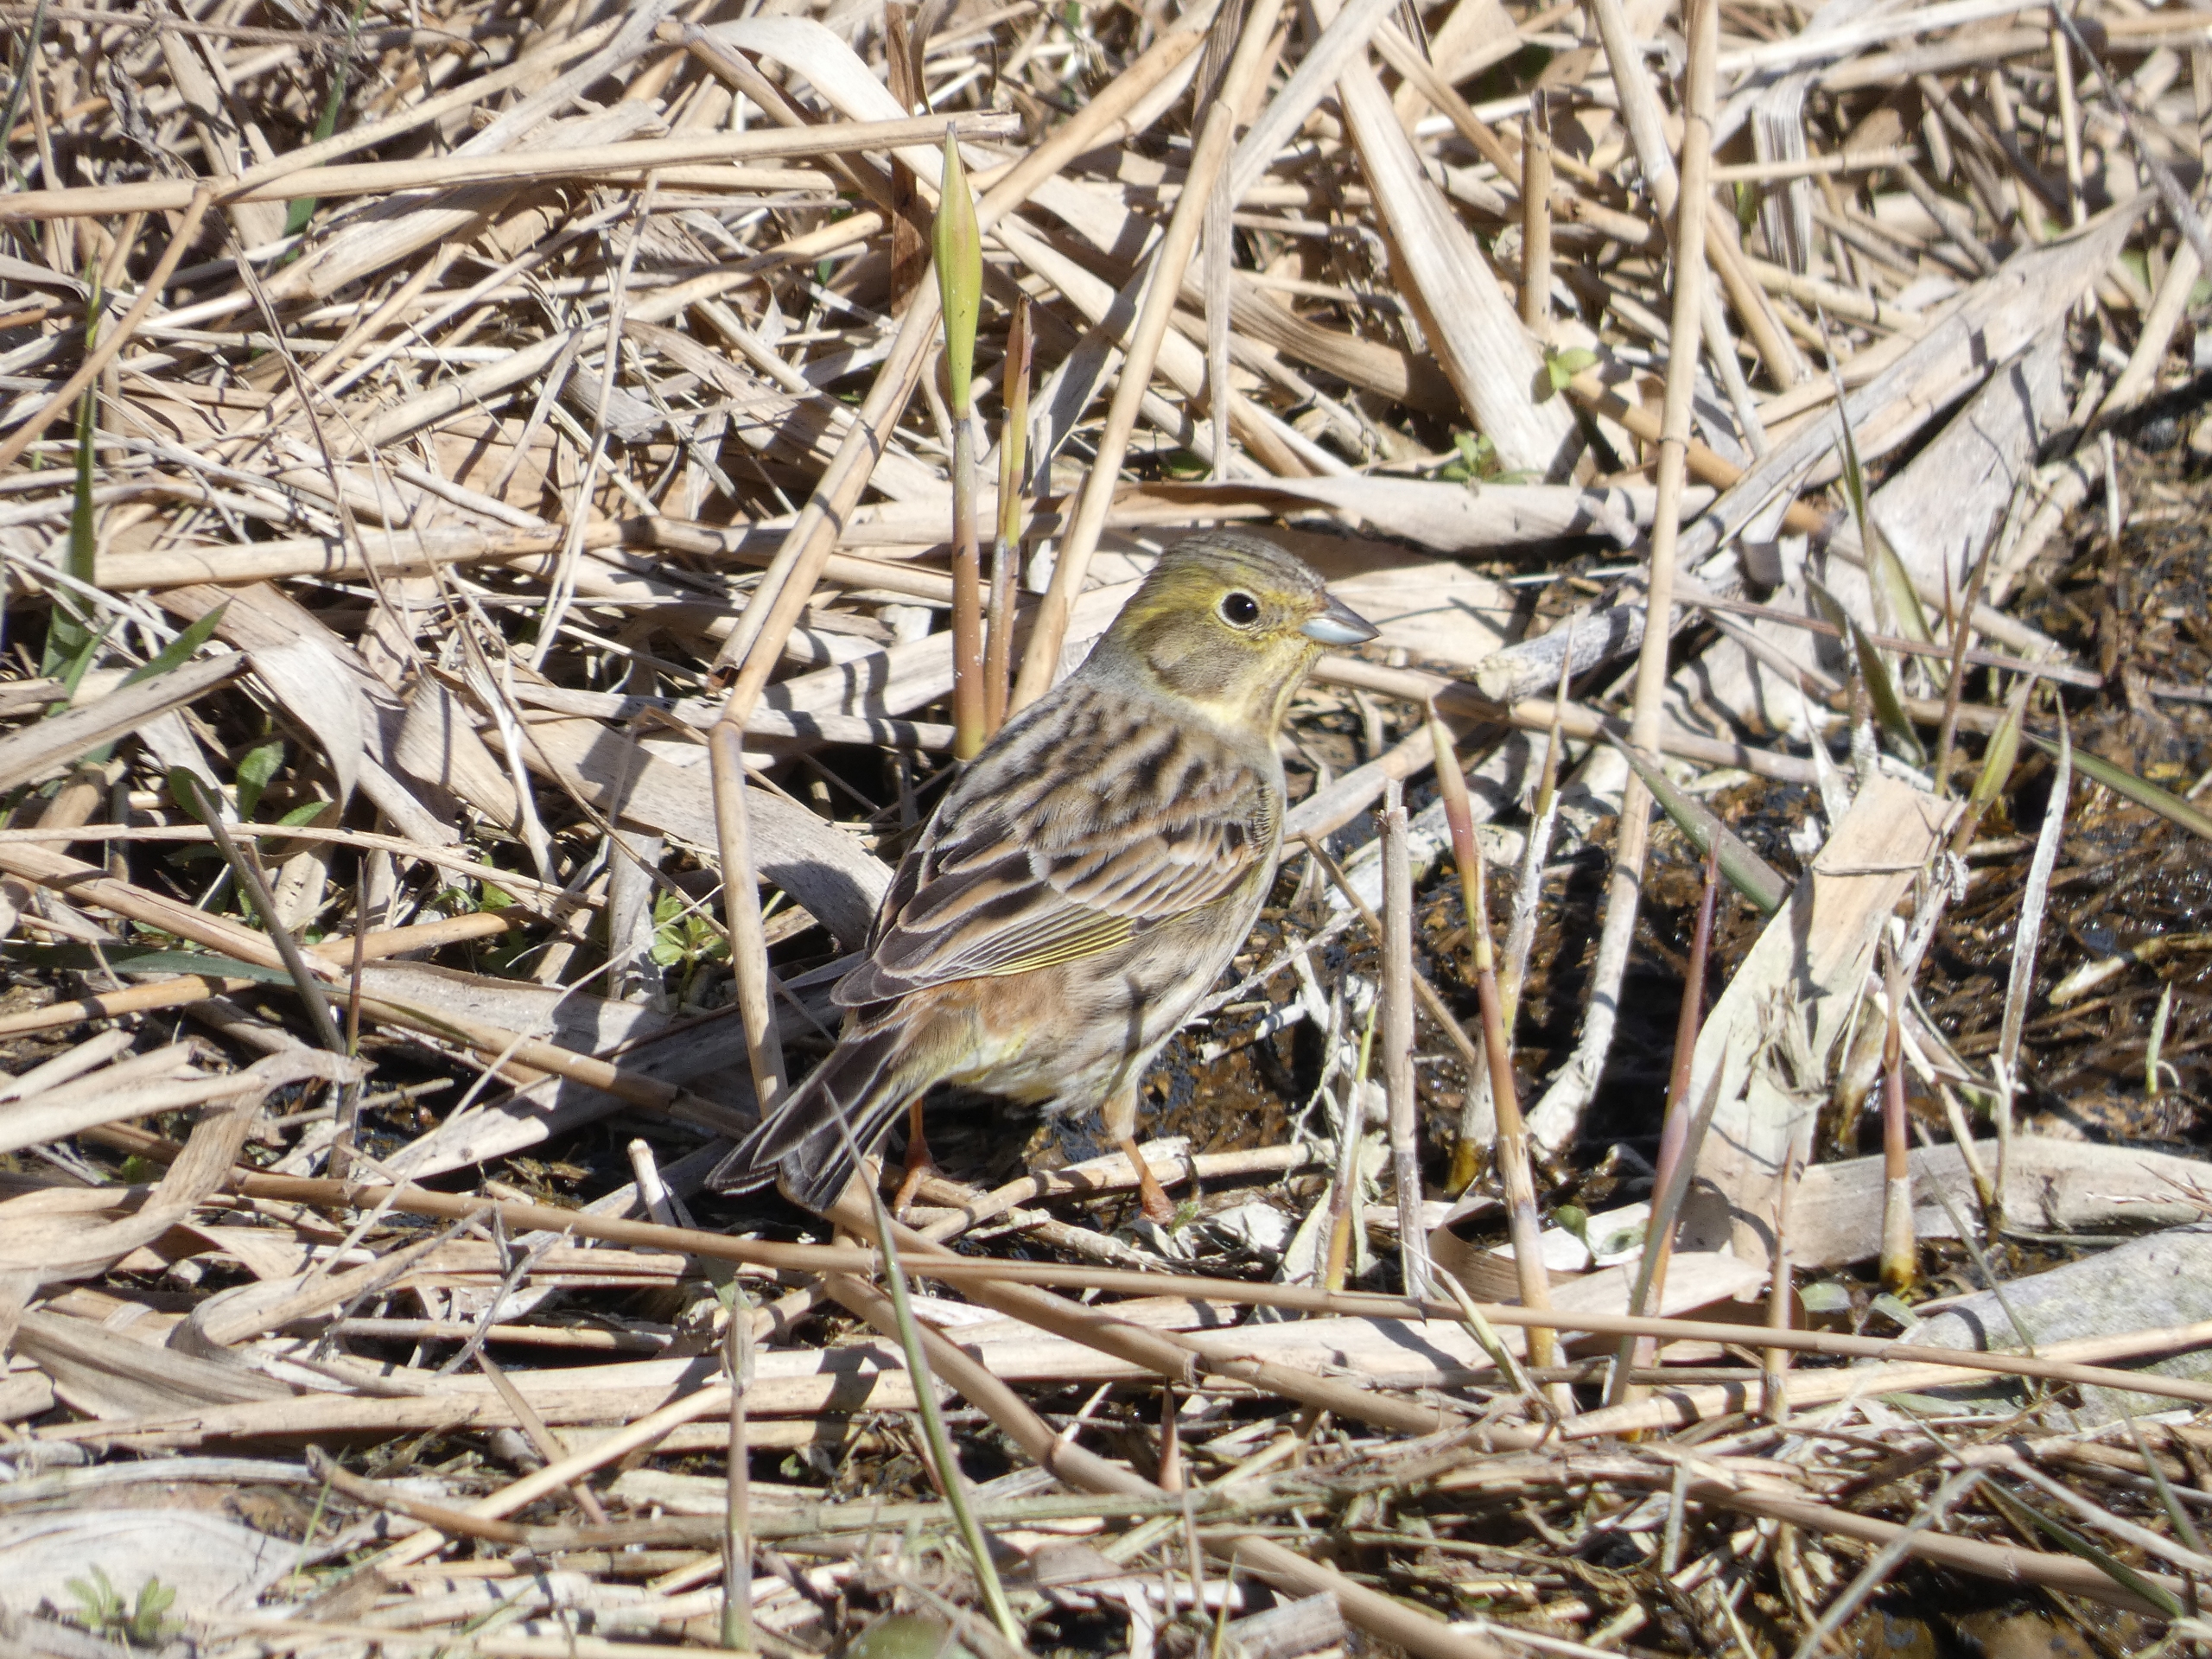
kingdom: Animalia
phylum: Chordata
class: Aves
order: Passeriformes
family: Emberizidae
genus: Emberiza
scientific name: Emberiza citrinella
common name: Gulspurv
